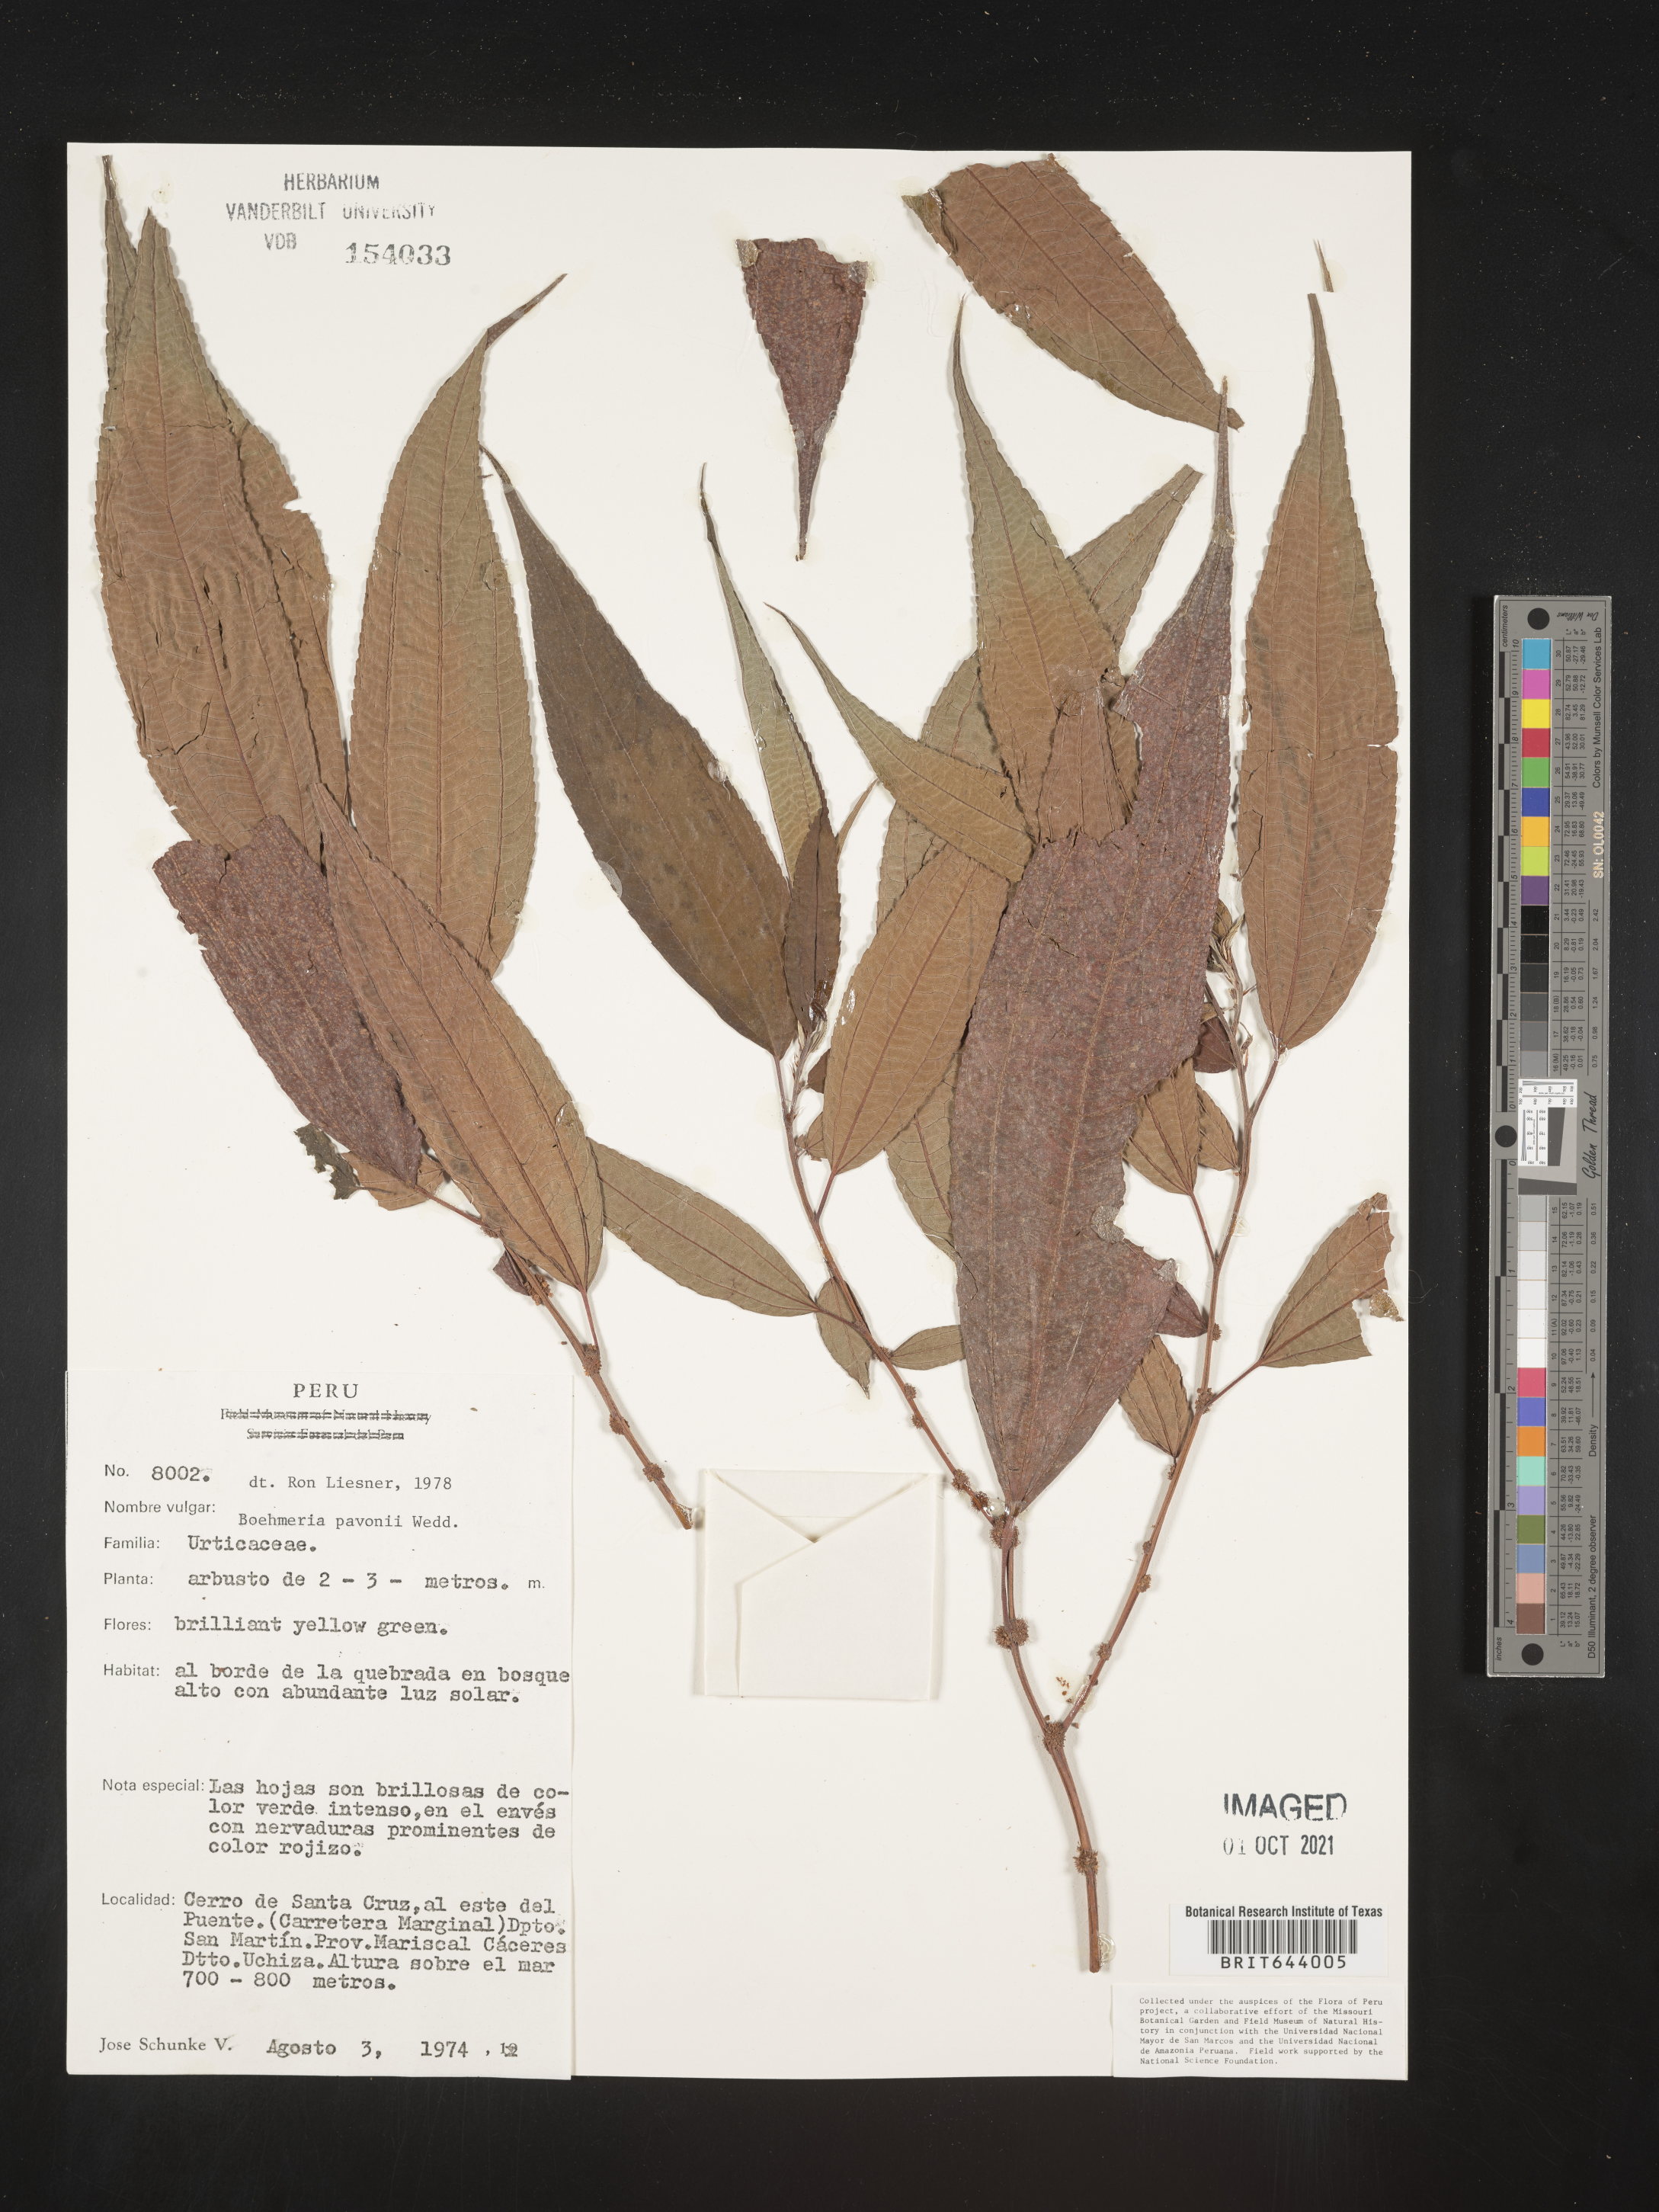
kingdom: Plantae
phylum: Tracheophyta
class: Magnoliopsida
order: Rosales
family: Urticaceae
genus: Boehmeria
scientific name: Boehmeria
